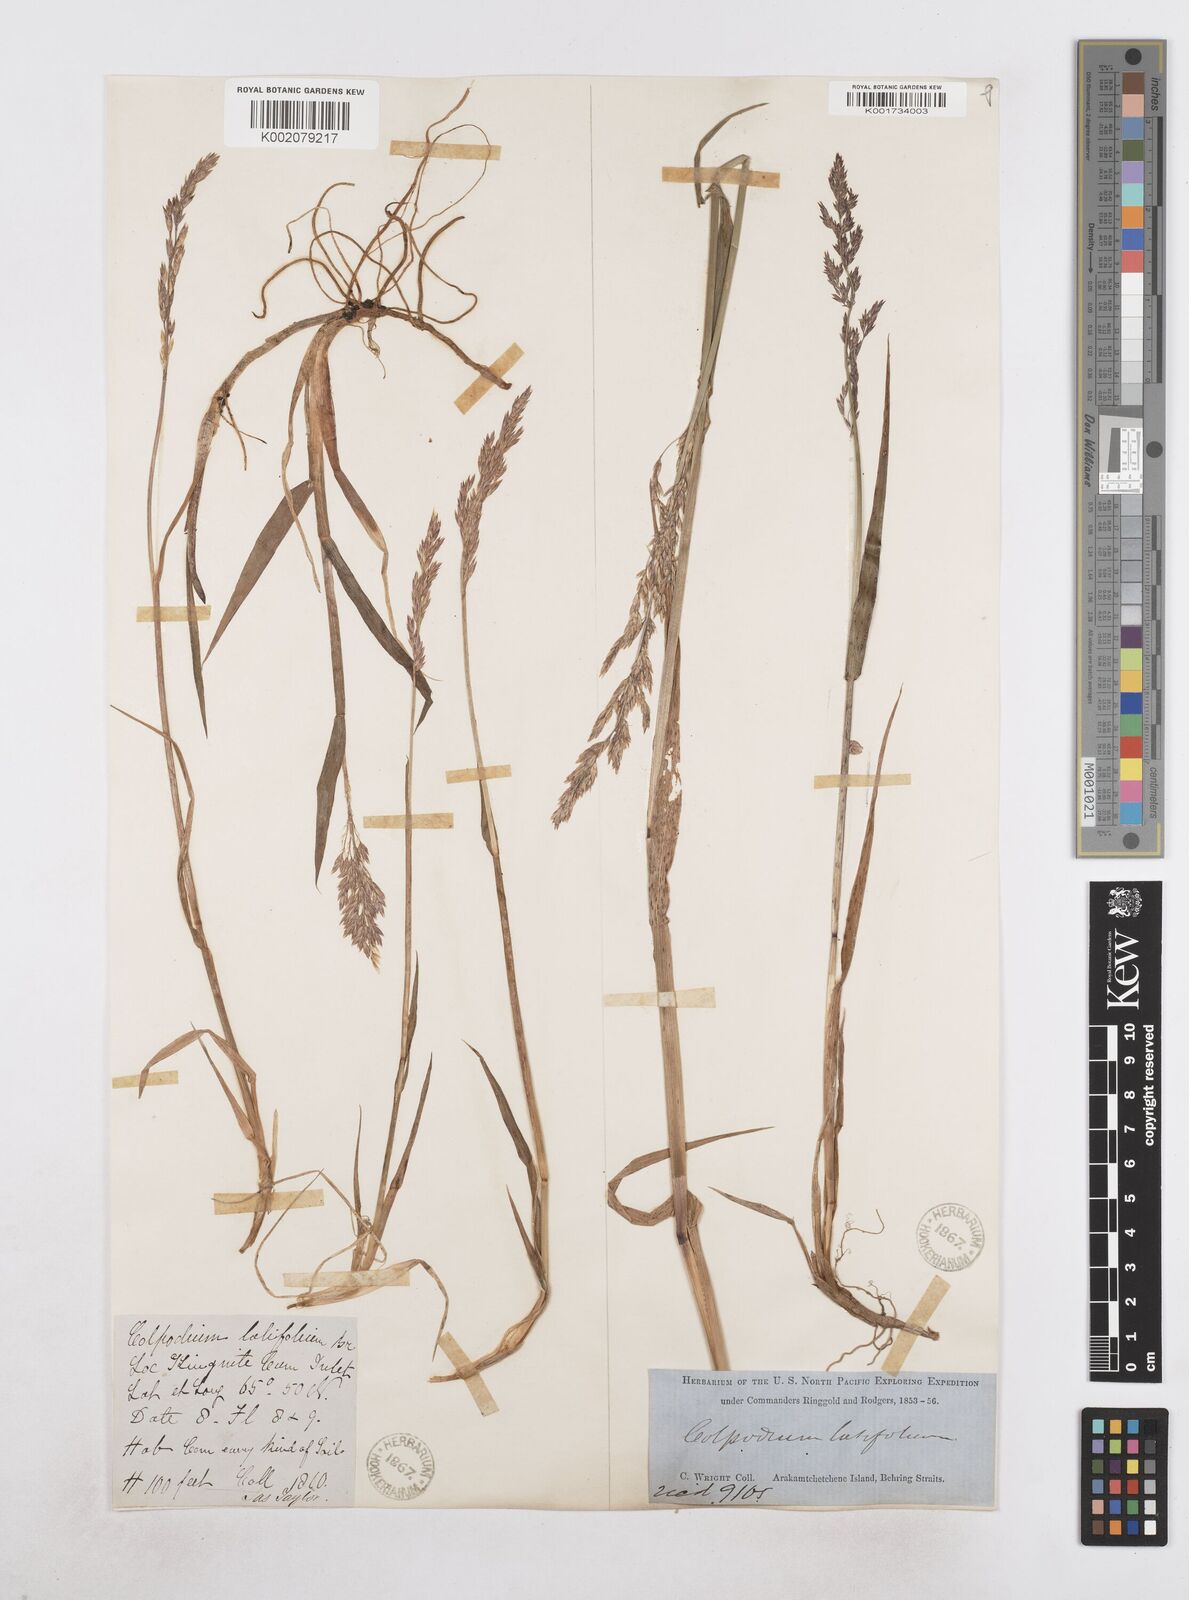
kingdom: Plantae
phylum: Tracheophyta
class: Liliopsida
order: Poales
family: Poaceae
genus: Arctagrostis
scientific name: Arctagrostis latifolia
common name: Arctic grass
